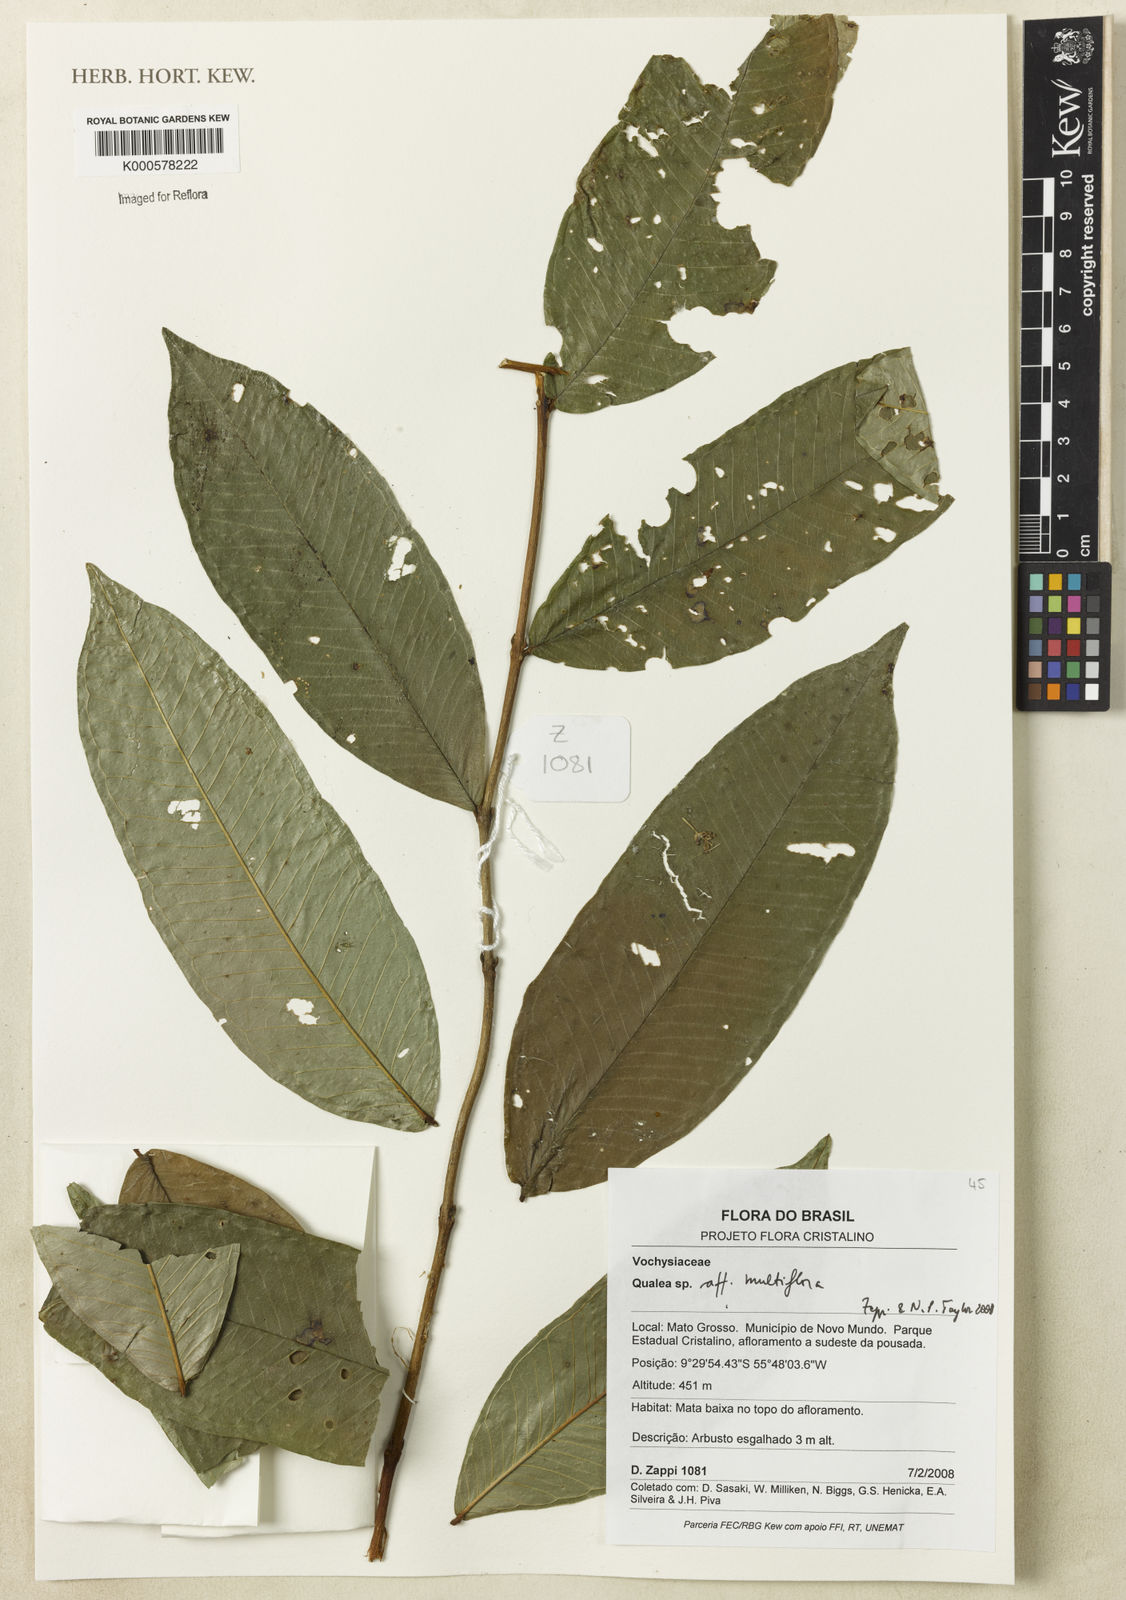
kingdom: Plantae
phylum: Tracheophyta
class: Magnoliopsida
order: Myrtales
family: Vochysiaceae
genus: Qualea
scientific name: Qualea multiflora
